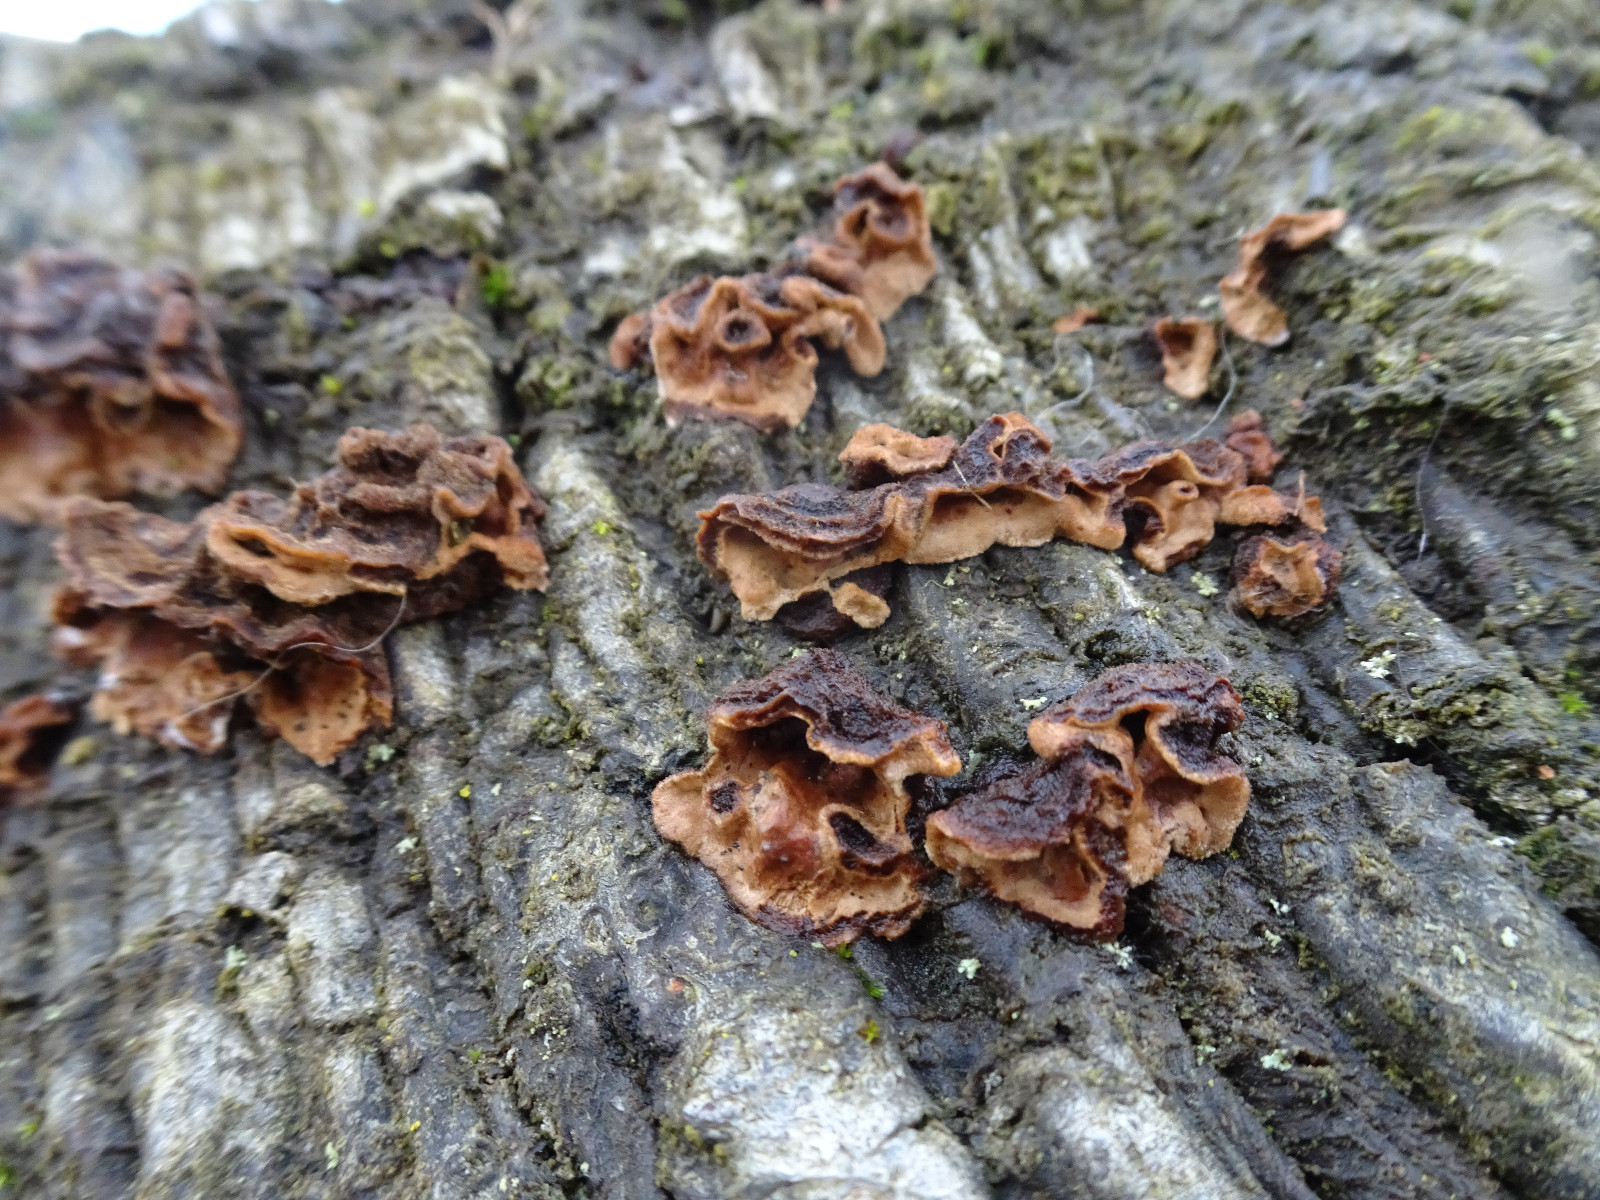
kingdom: Fungi
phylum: Basidiomycota
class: Agaricomycetes
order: Russulales
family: Stereaceae
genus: Stereum
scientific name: Stereum hirsutum
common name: håret lædersvamp
